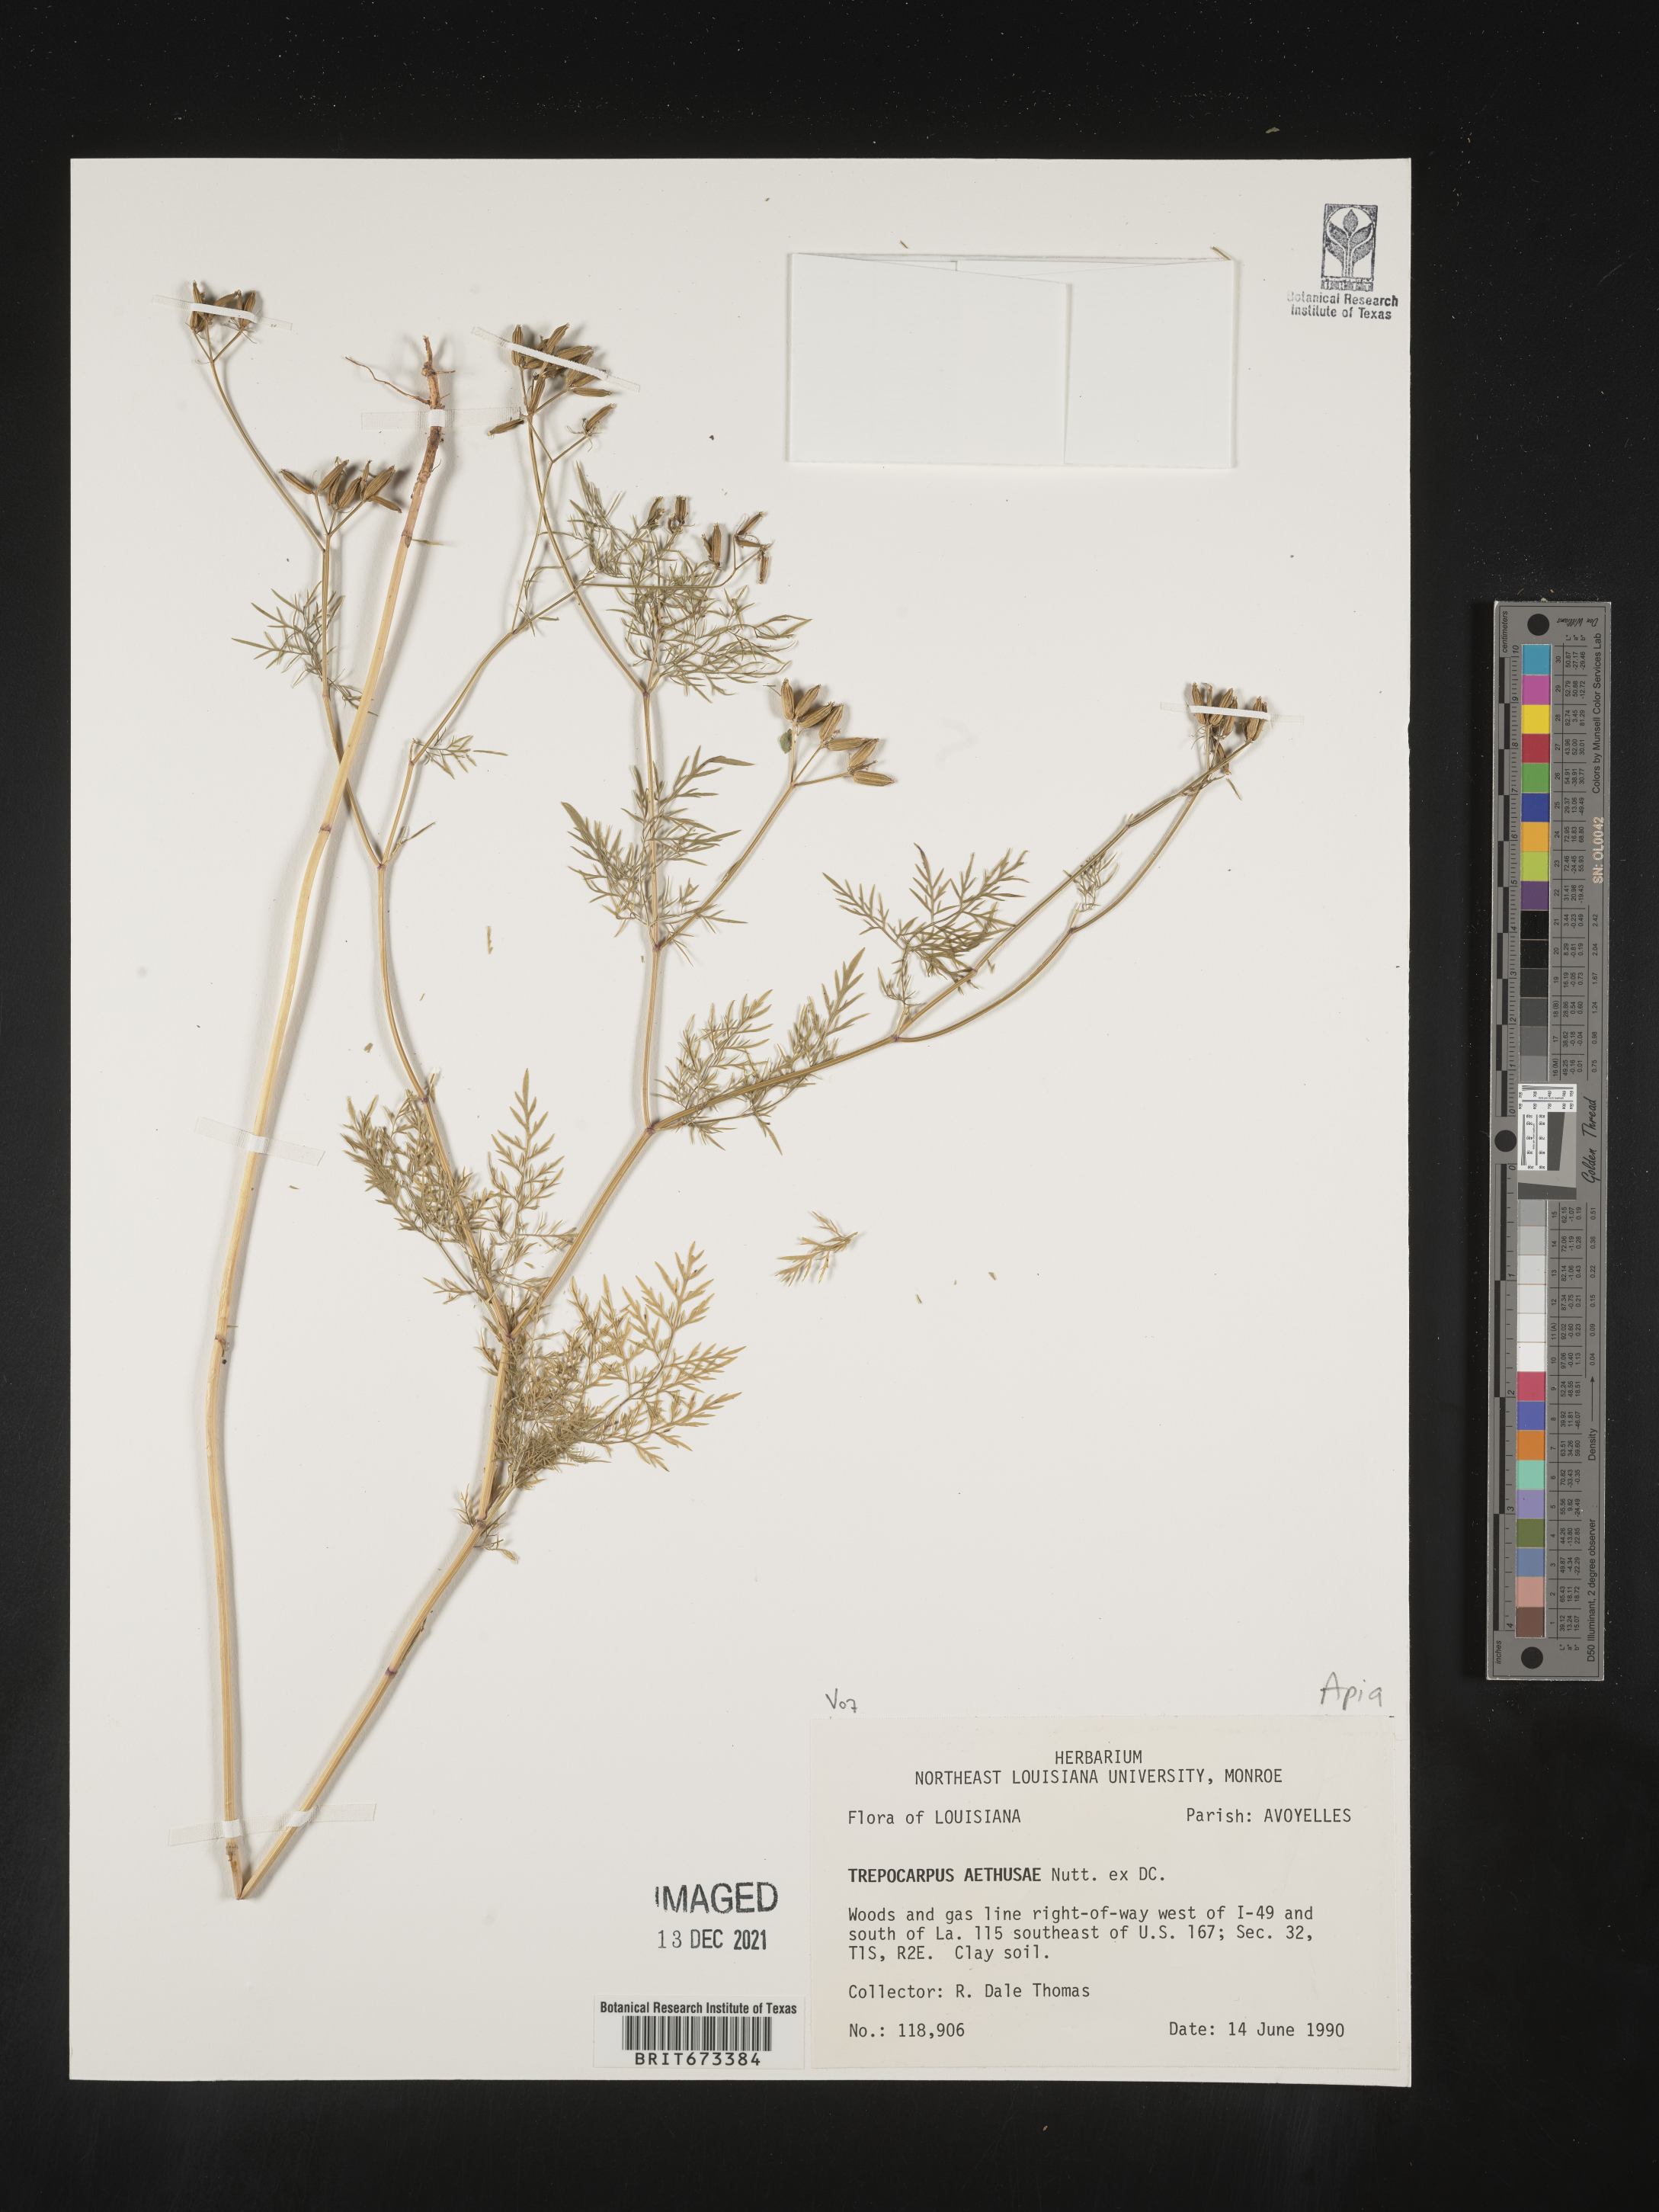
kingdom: Plantae
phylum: Tracheophyta
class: Magnoliopsida
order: Apiales
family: Apiaceae
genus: Trepocarpus
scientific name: Trepocarpus aethusae
